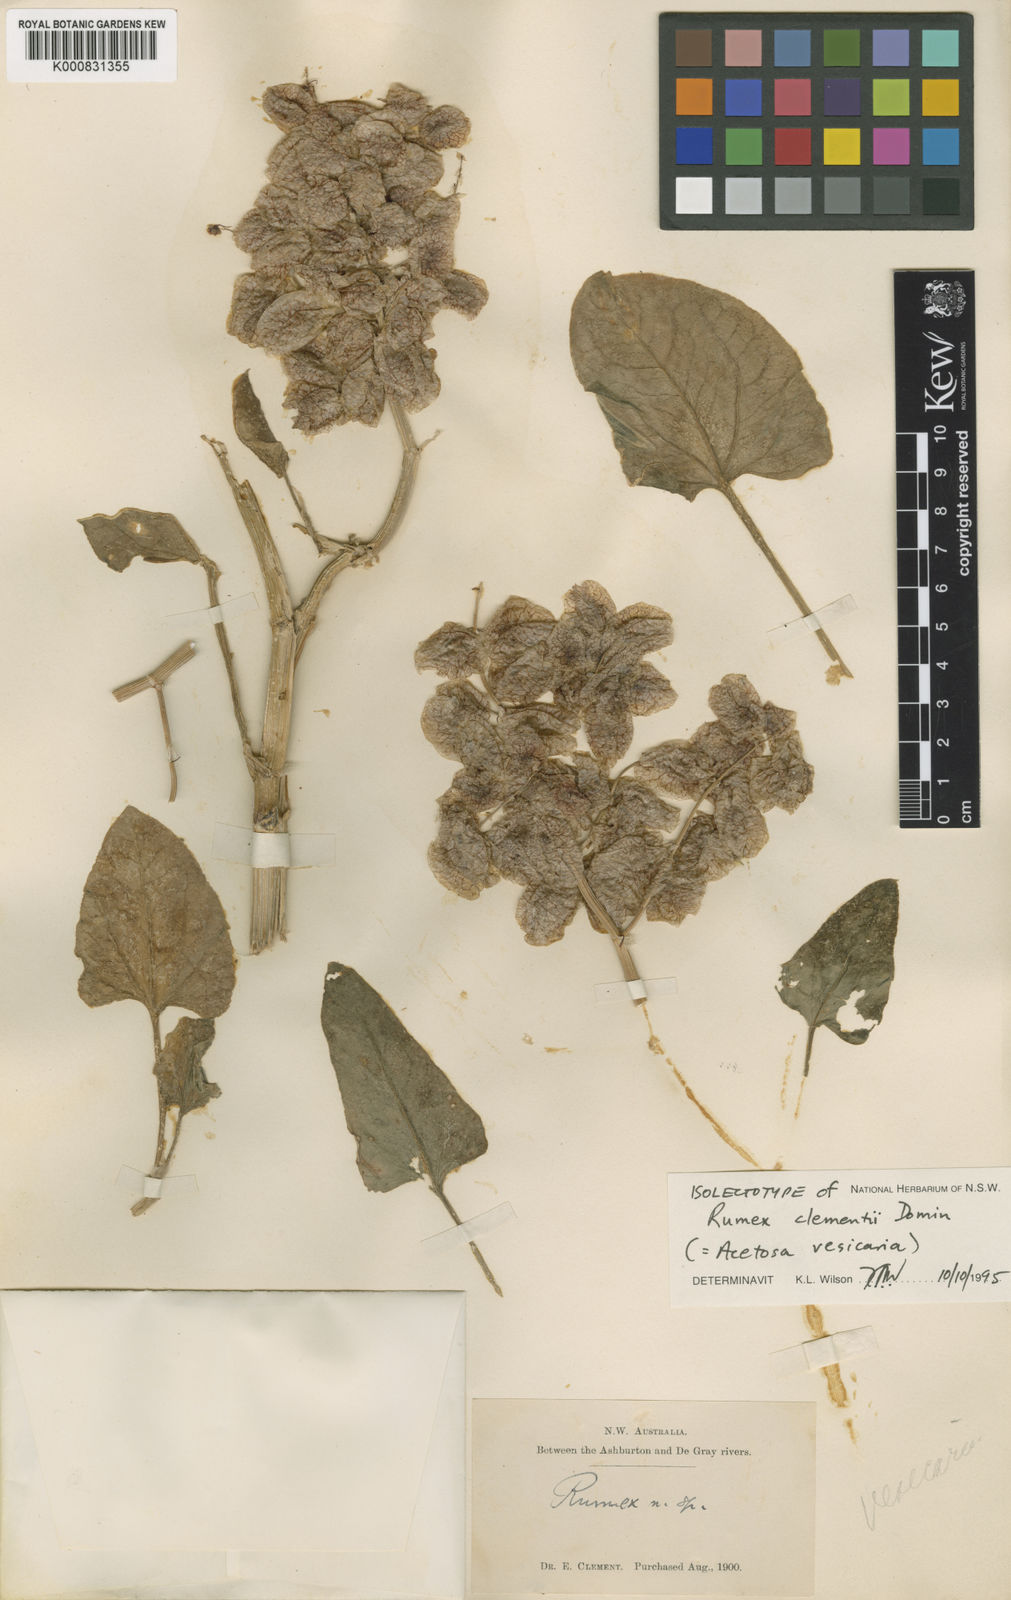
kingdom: Plantae
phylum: Tracheophyta
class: Magnoliopsida
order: Caryophyllales
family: Polygonaceae
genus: Rumex
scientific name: Rumex vesicarius
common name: Bladder dock
